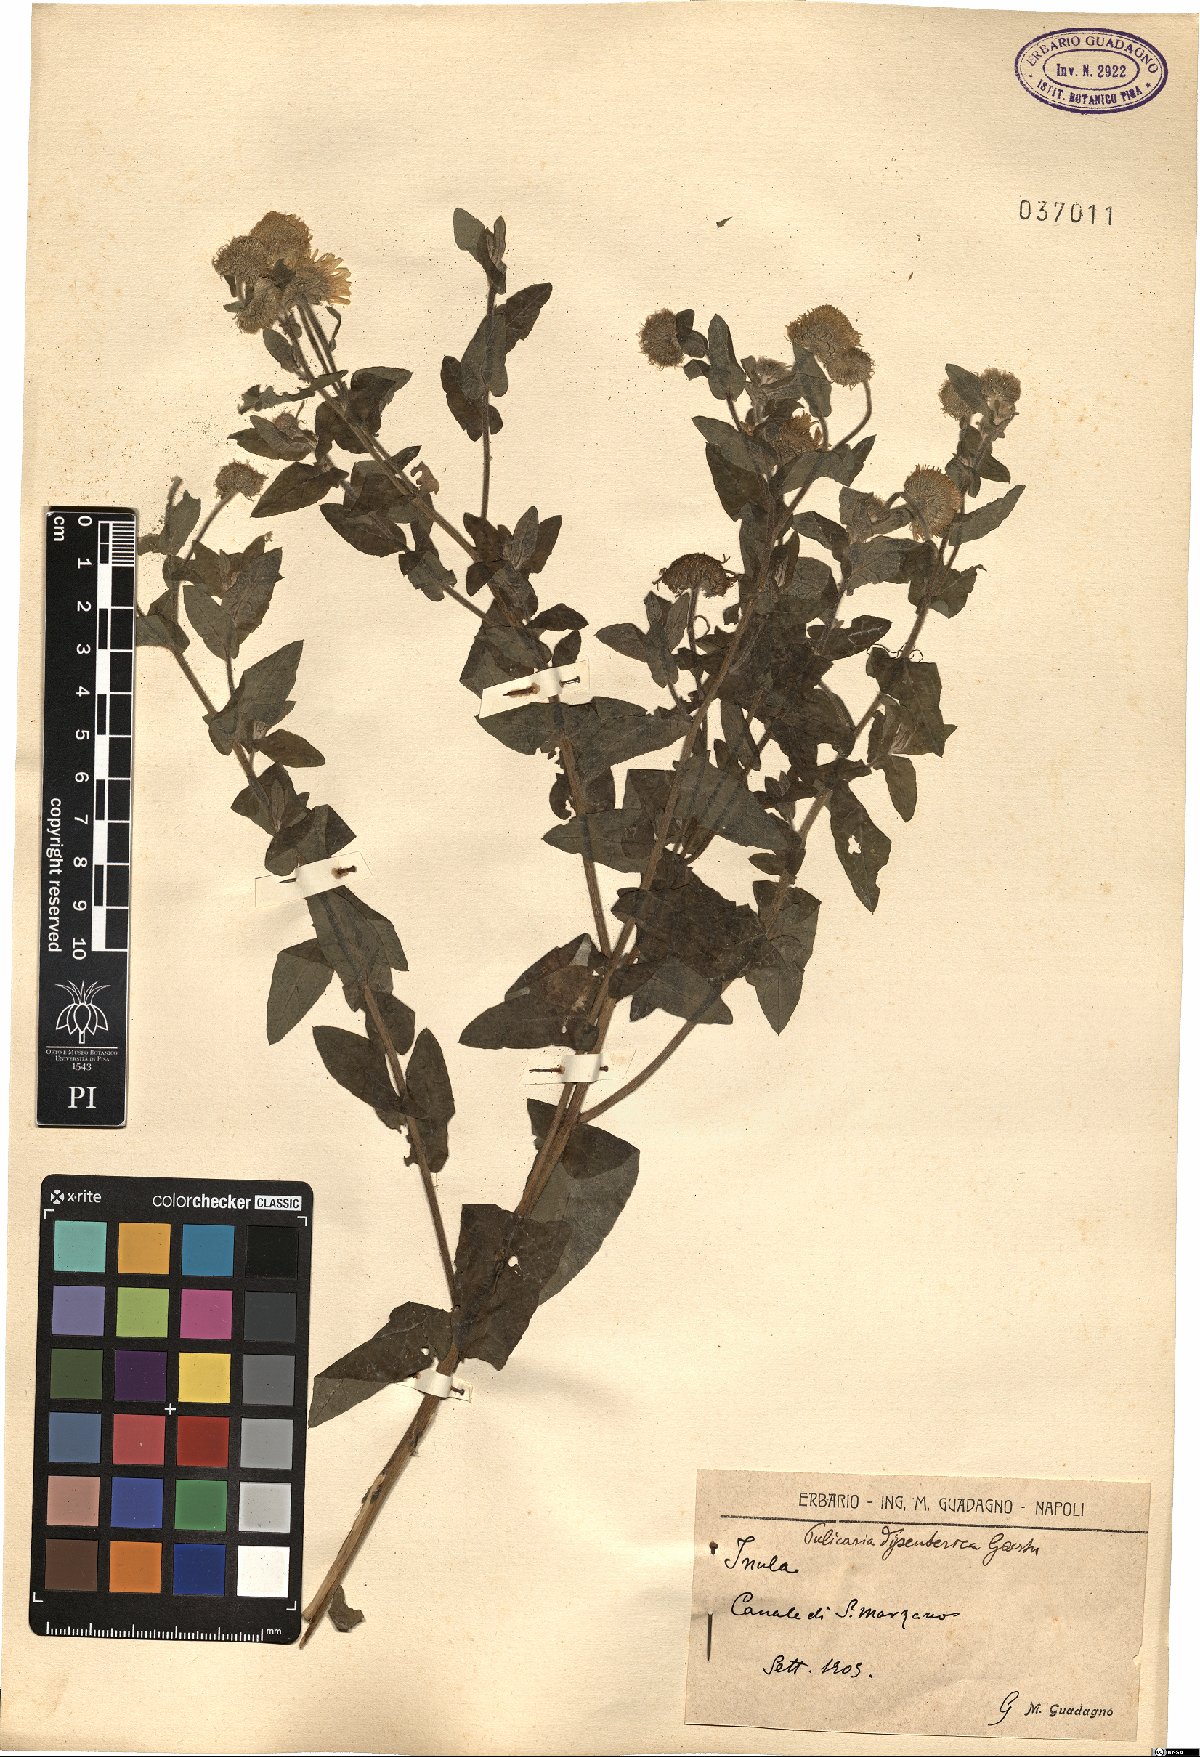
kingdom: Plantae
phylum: Tracheophyta
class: Magnoliopsida
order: Asterales
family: Asteraceae
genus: Pulicaria
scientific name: Pulicaria dysenterica
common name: Common fleabane
